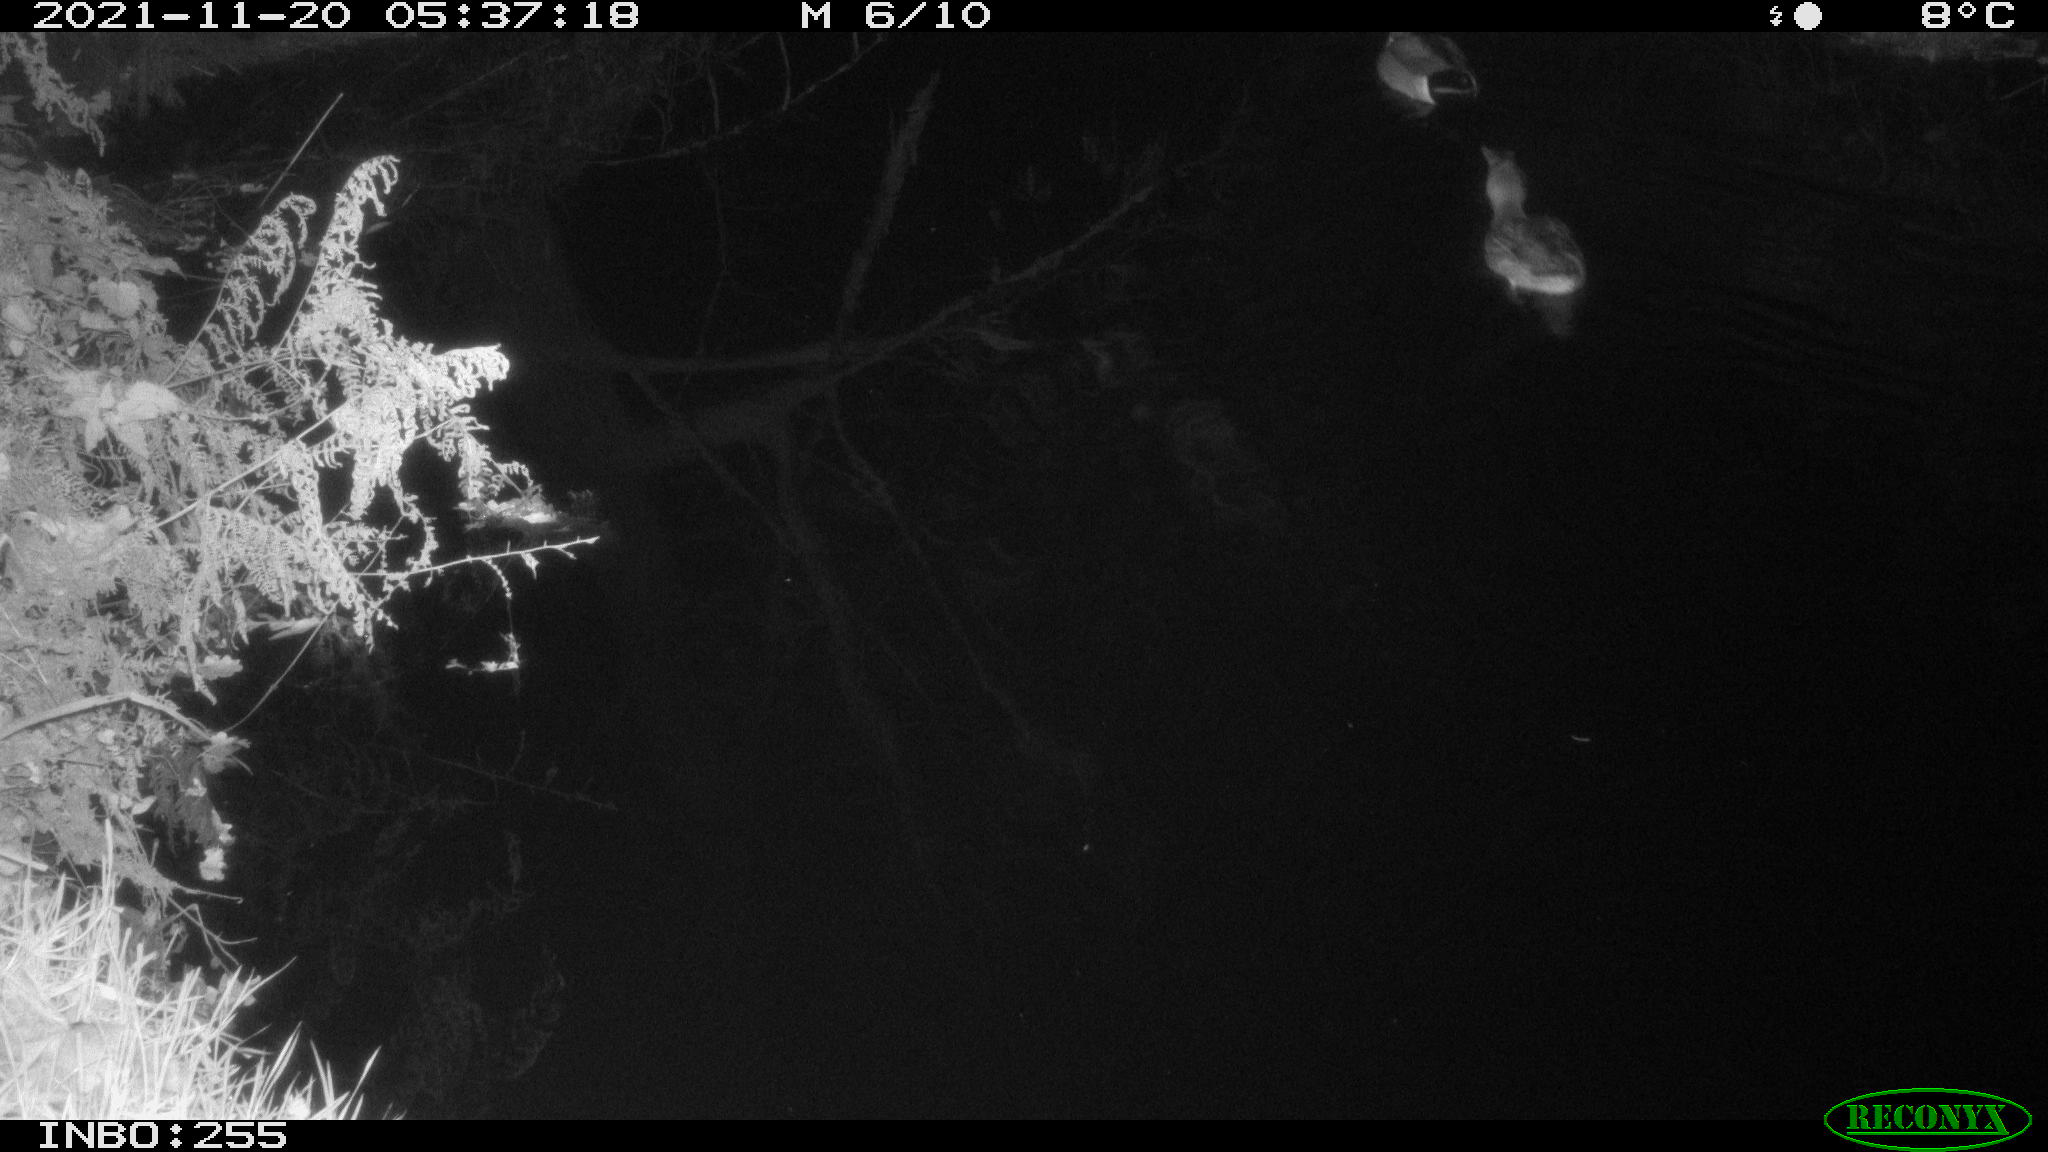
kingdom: Animalia
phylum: Chordata
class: Aves
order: Anseriformes
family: Anatidae
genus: Anas
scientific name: Anas platyrhynchos
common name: Mallard
